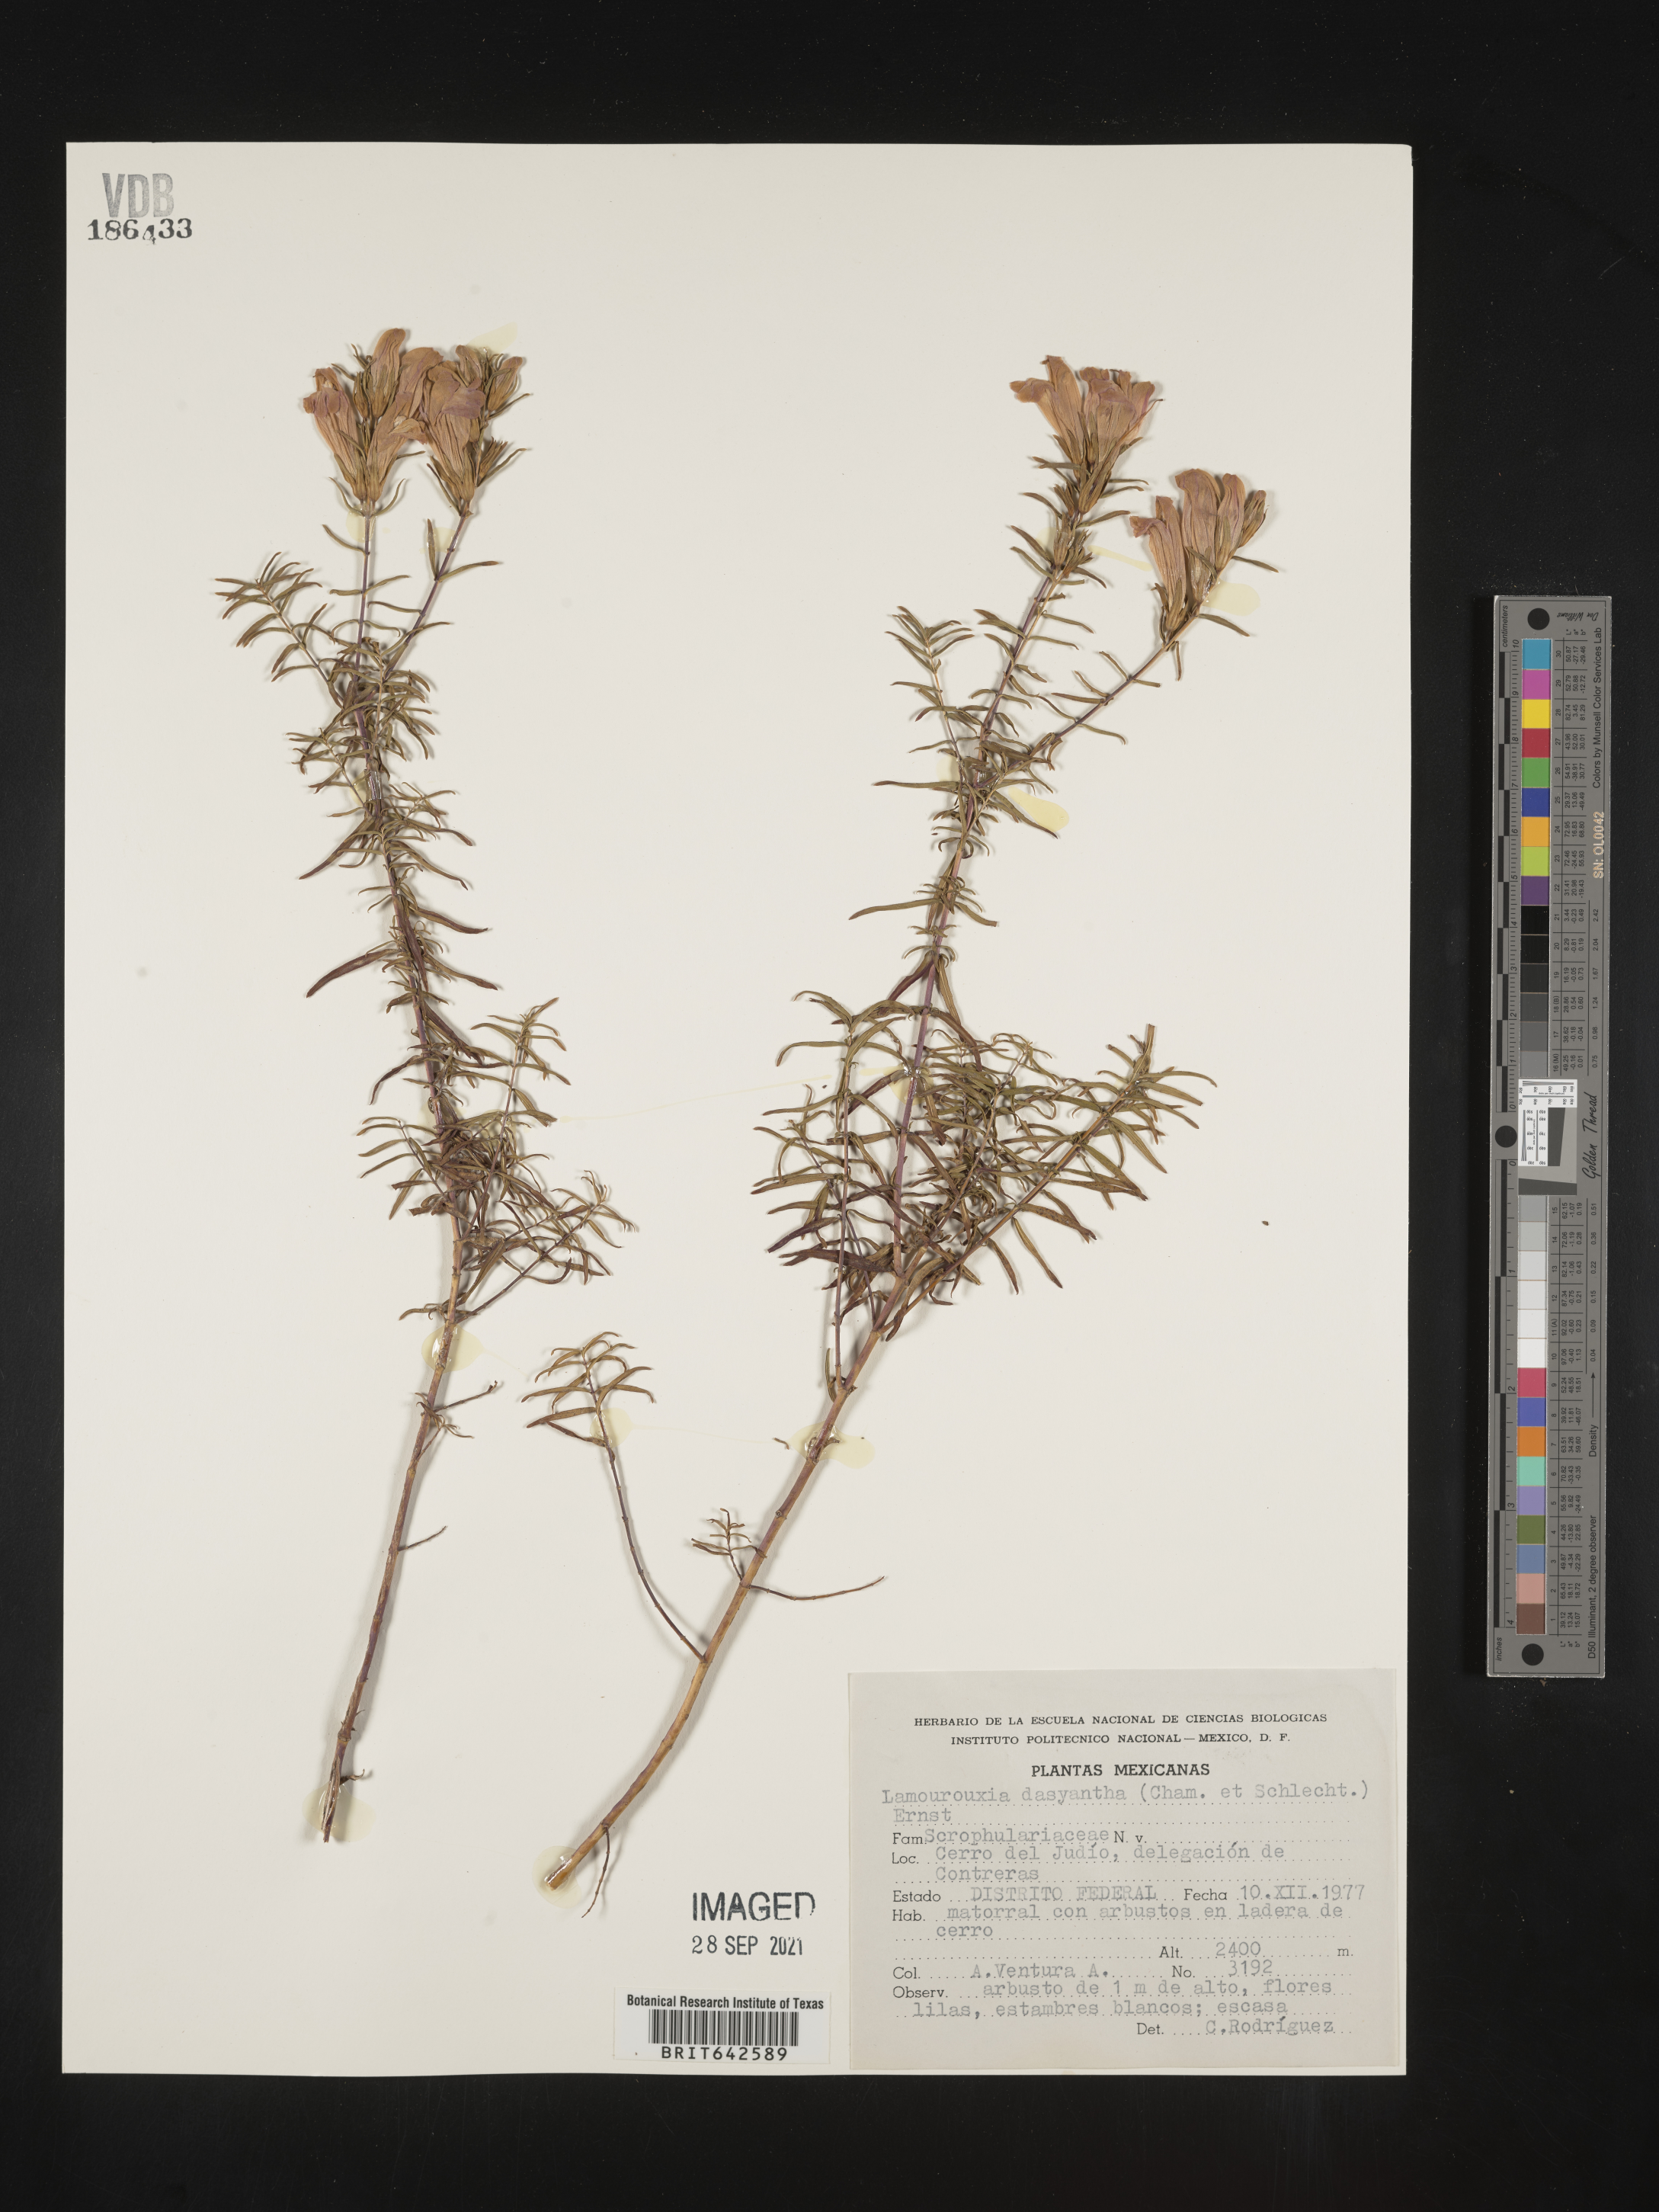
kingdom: Plantae
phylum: Tracheophyta
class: Magnoliopsida
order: Lamiales
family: Orobanchaceae
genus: Lamourouxia
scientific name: Lamourouxia
